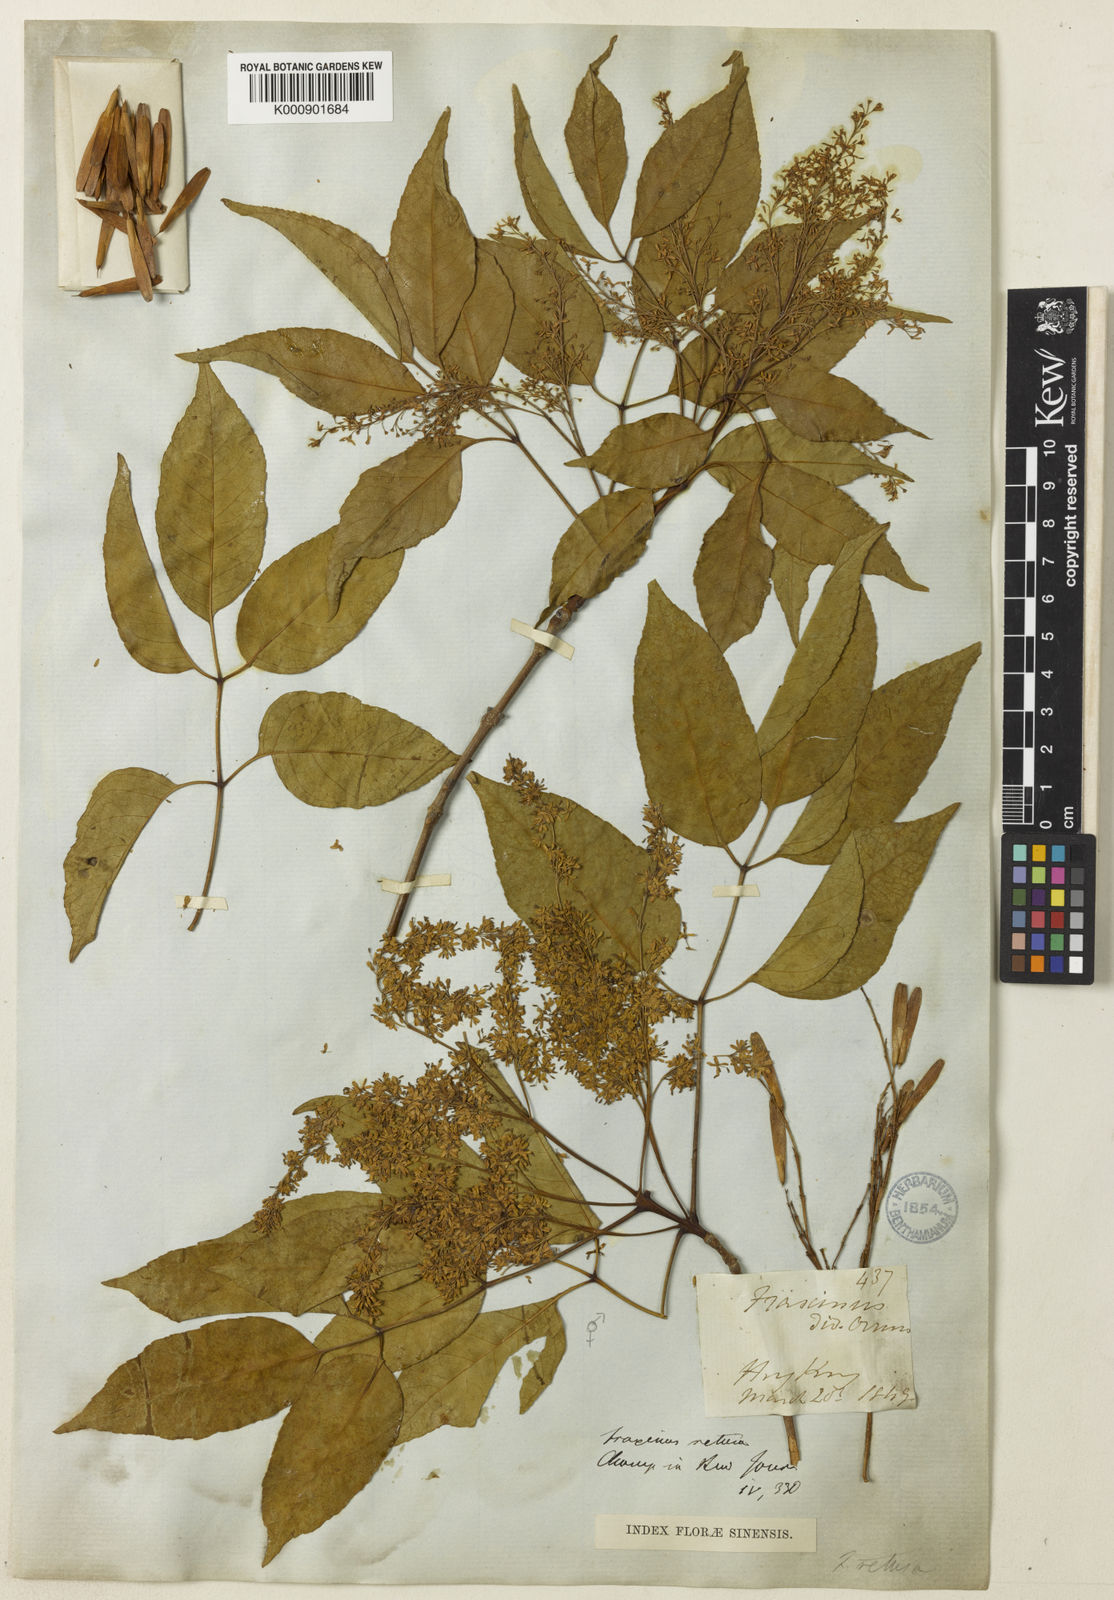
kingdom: Plantae
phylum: Tracheophyta
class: Magnoliopsida
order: Lamiales
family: Oleaceae
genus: Fraxinus
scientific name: Fraxinus floribunda
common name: East indian ash
